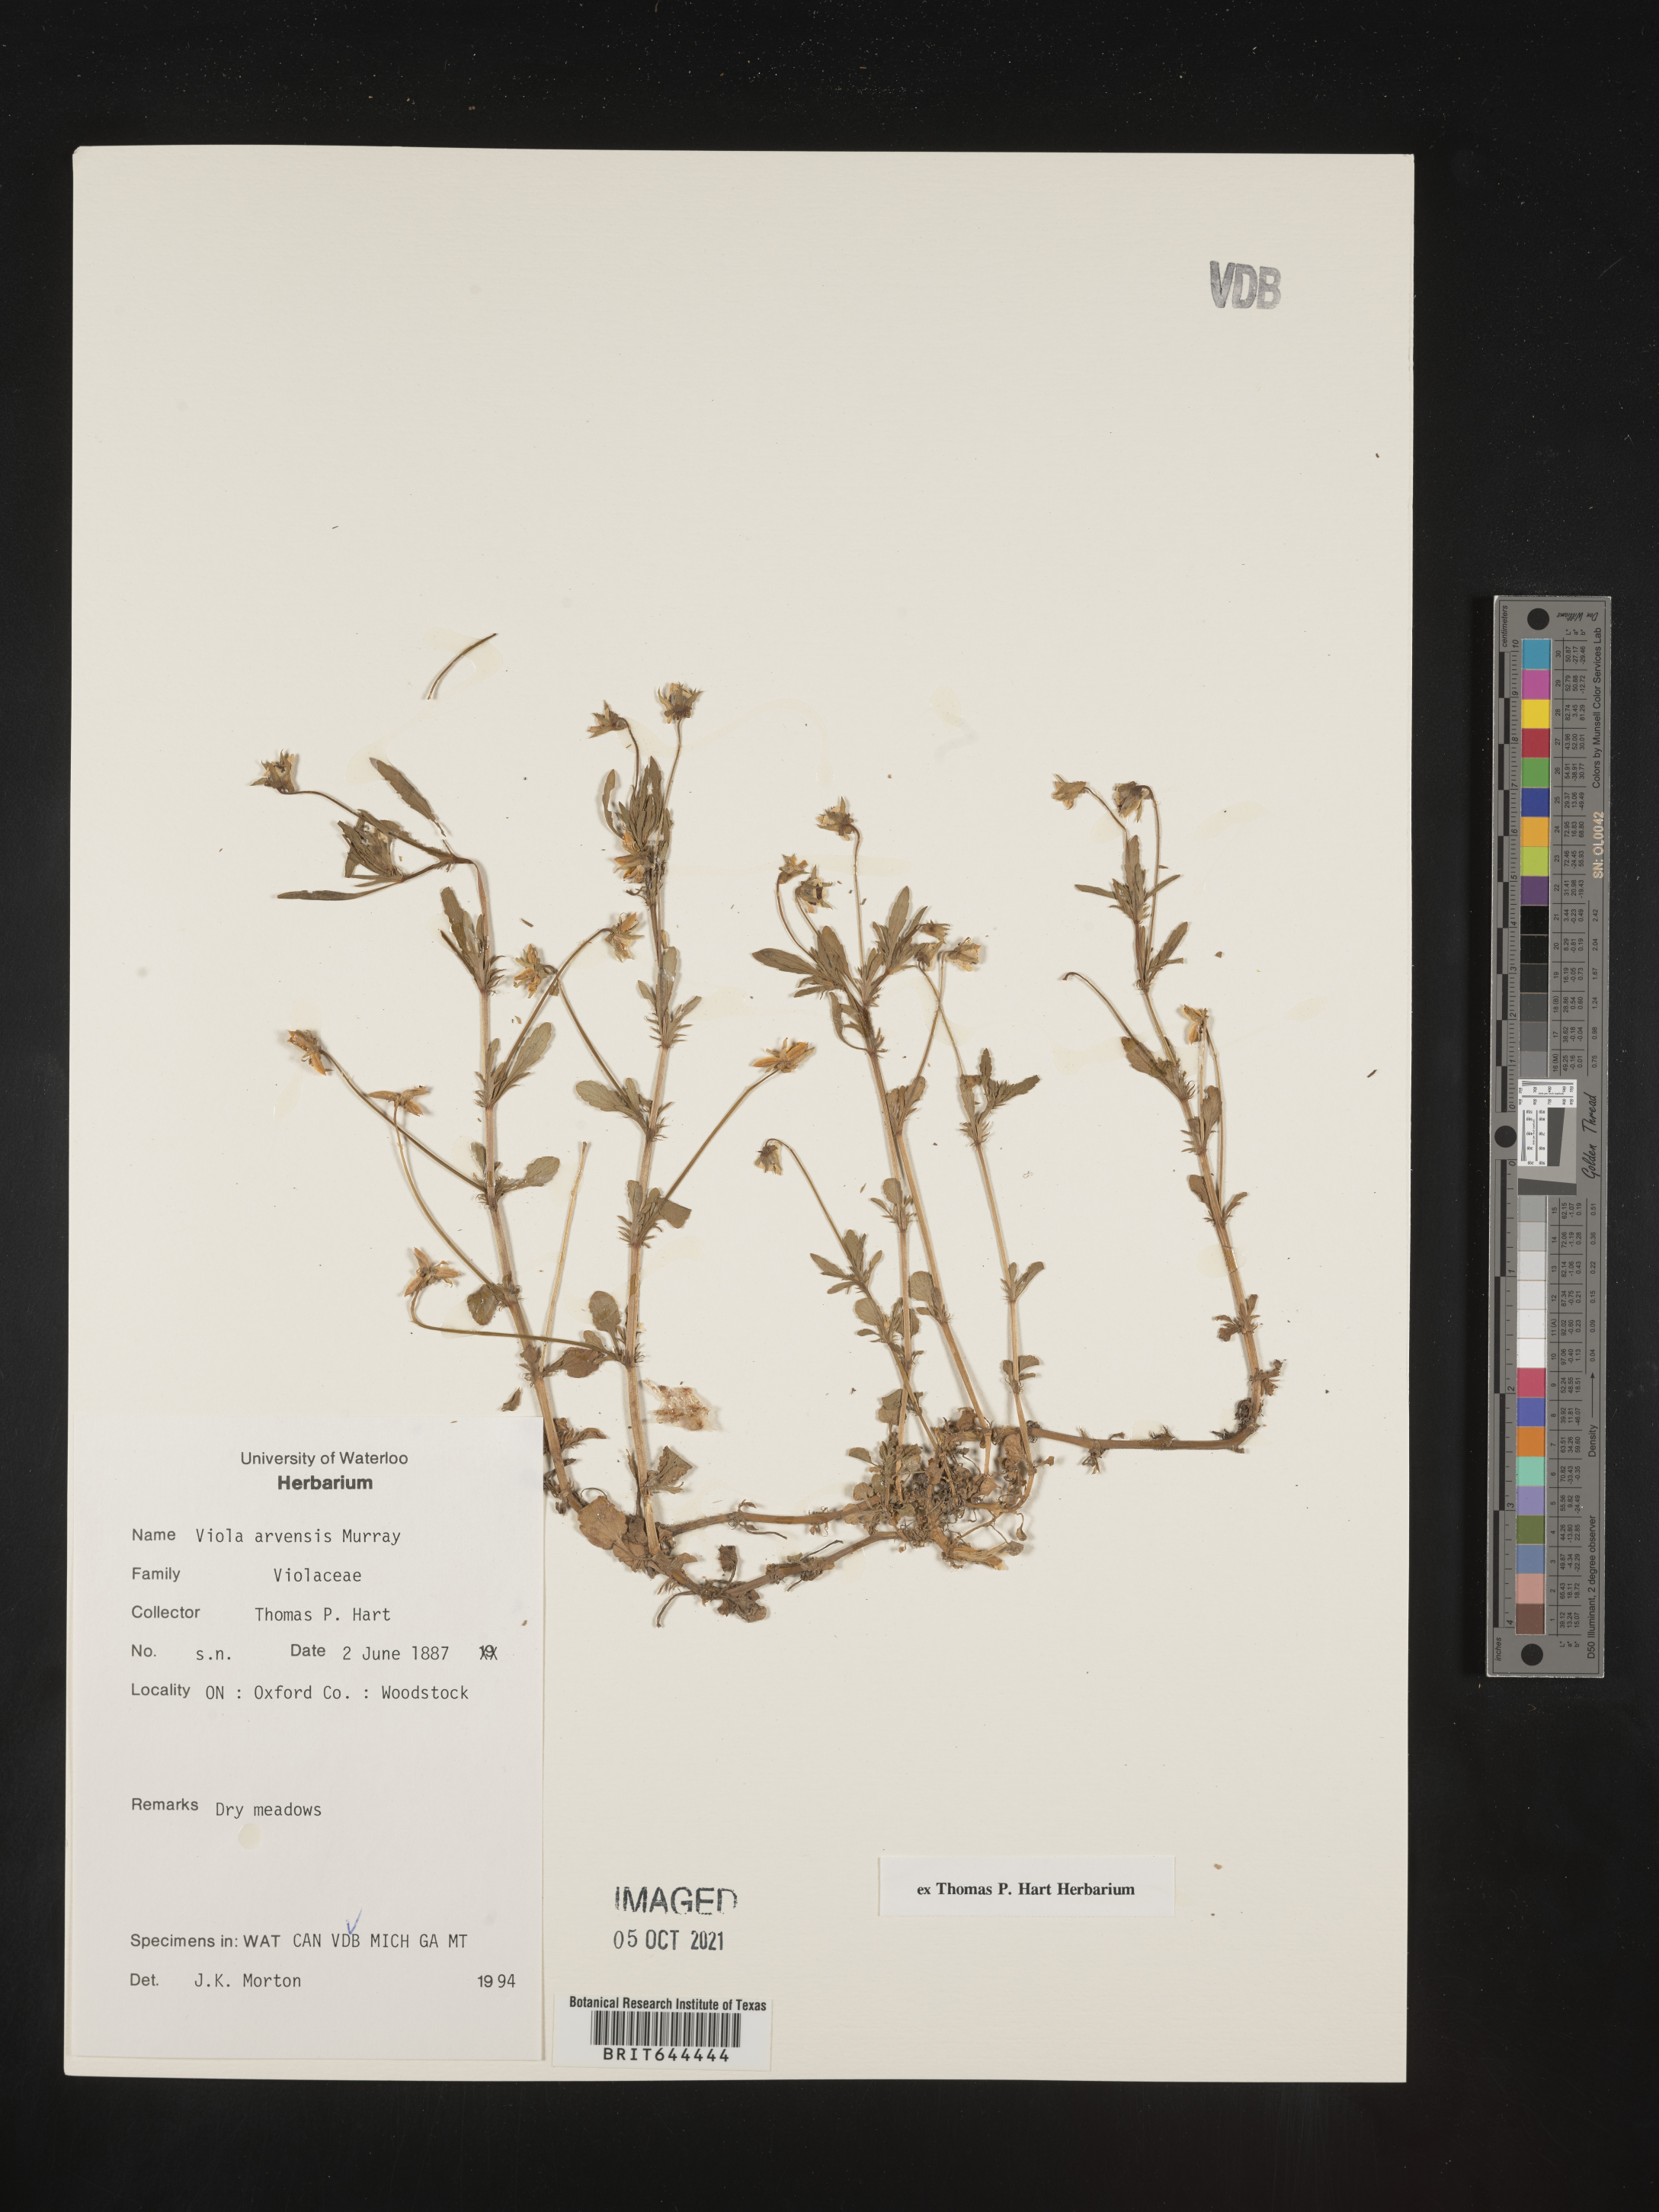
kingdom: Plantae
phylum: Tracheophyta
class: Magnoliopsida
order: Malpighiales
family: Violaceae
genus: Viola
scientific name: Viola
